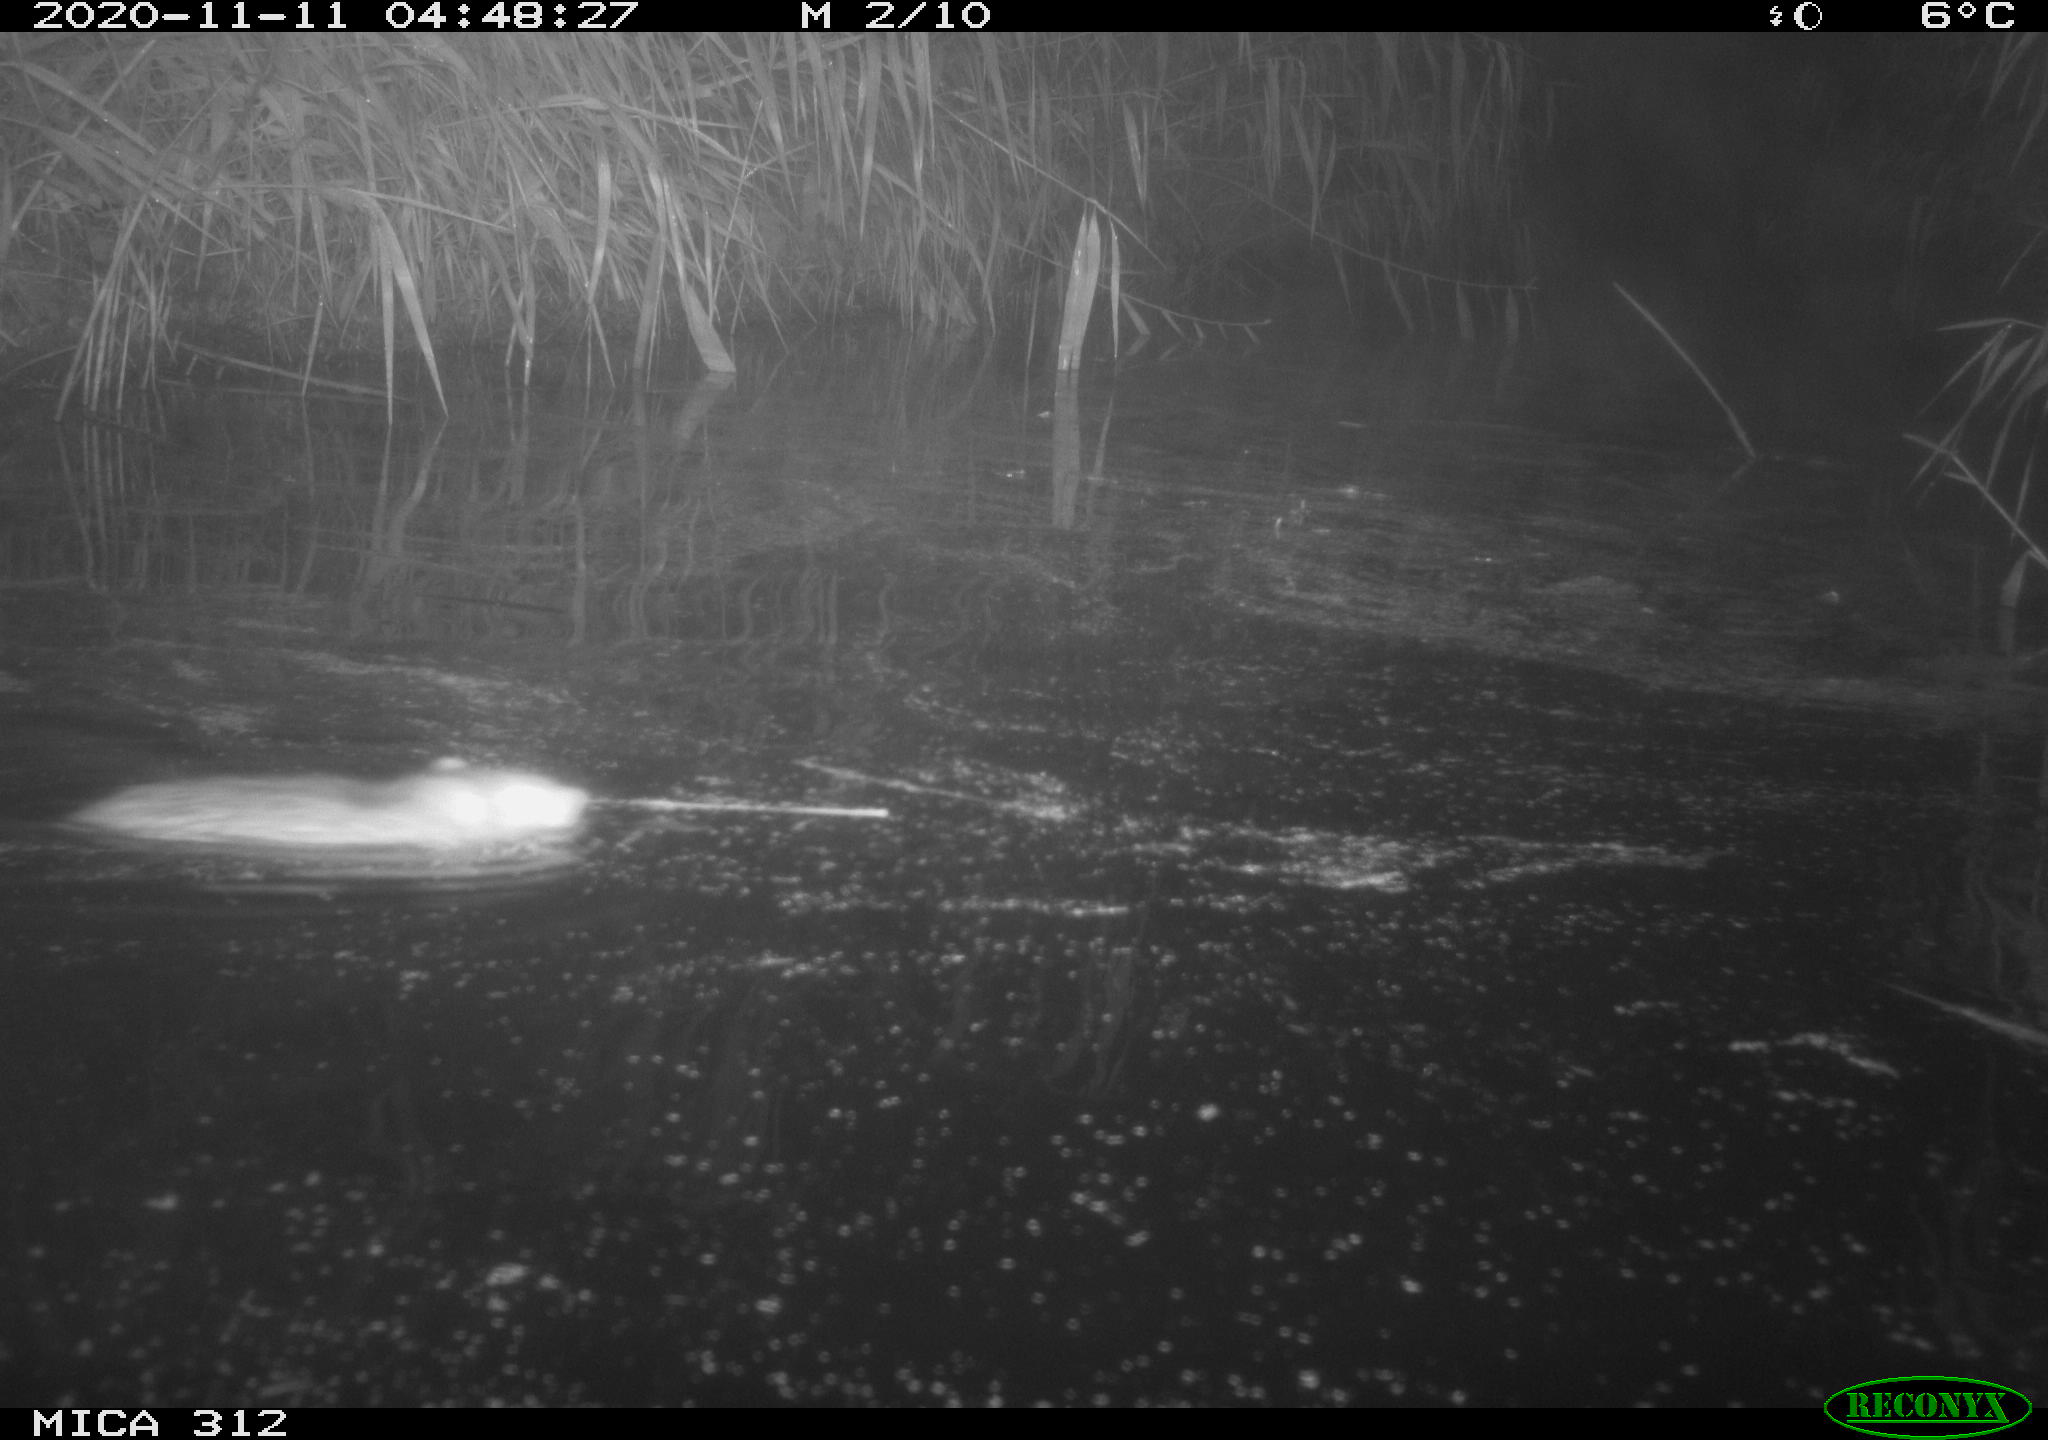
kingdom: Animalia
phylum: Chordata
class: Mammalia
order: Rodentia
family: Muridae
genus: Rattus
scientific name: Rattus norvegicus
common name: Brown rat
